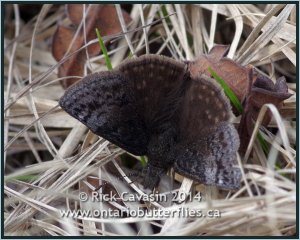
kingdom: Animalia
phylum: Arthropoda
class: Insecta
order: Lepidoptera
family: Hesperiidae
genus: Erynnis
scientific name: Erynnis icelus
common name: Dreamy Duskywing
